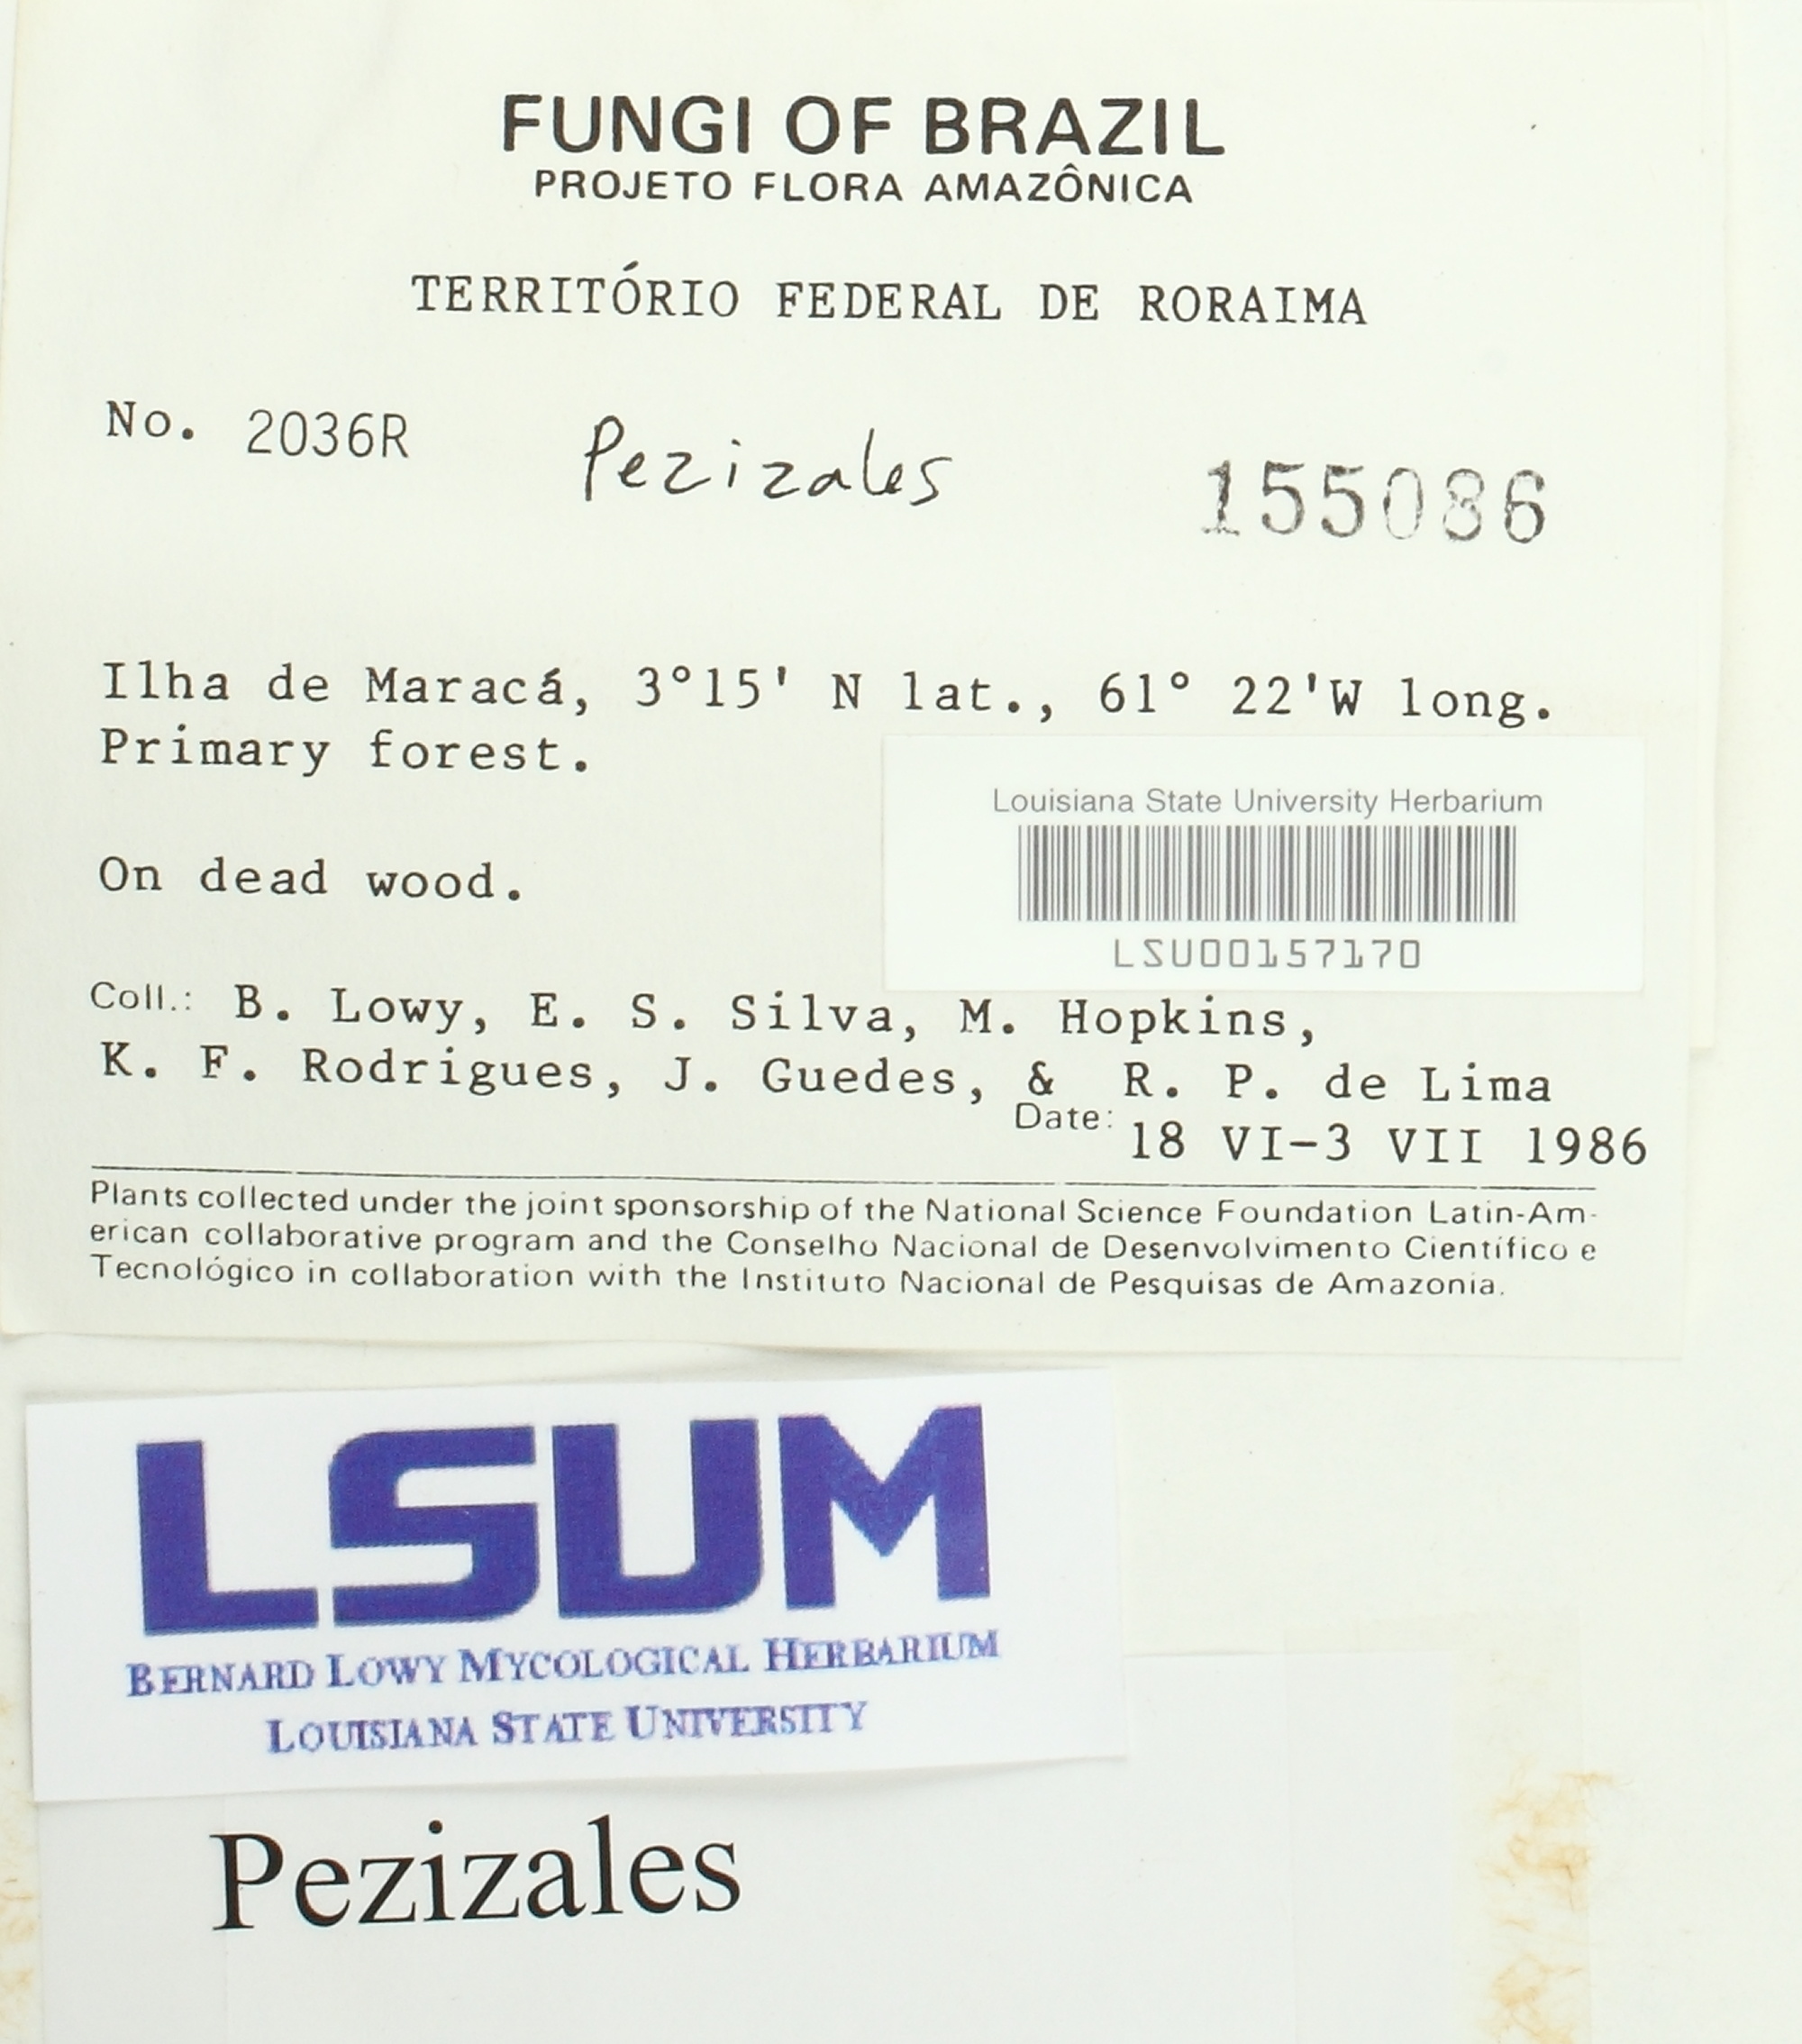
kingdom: Fungi
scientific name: Fungi
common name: Fungi
